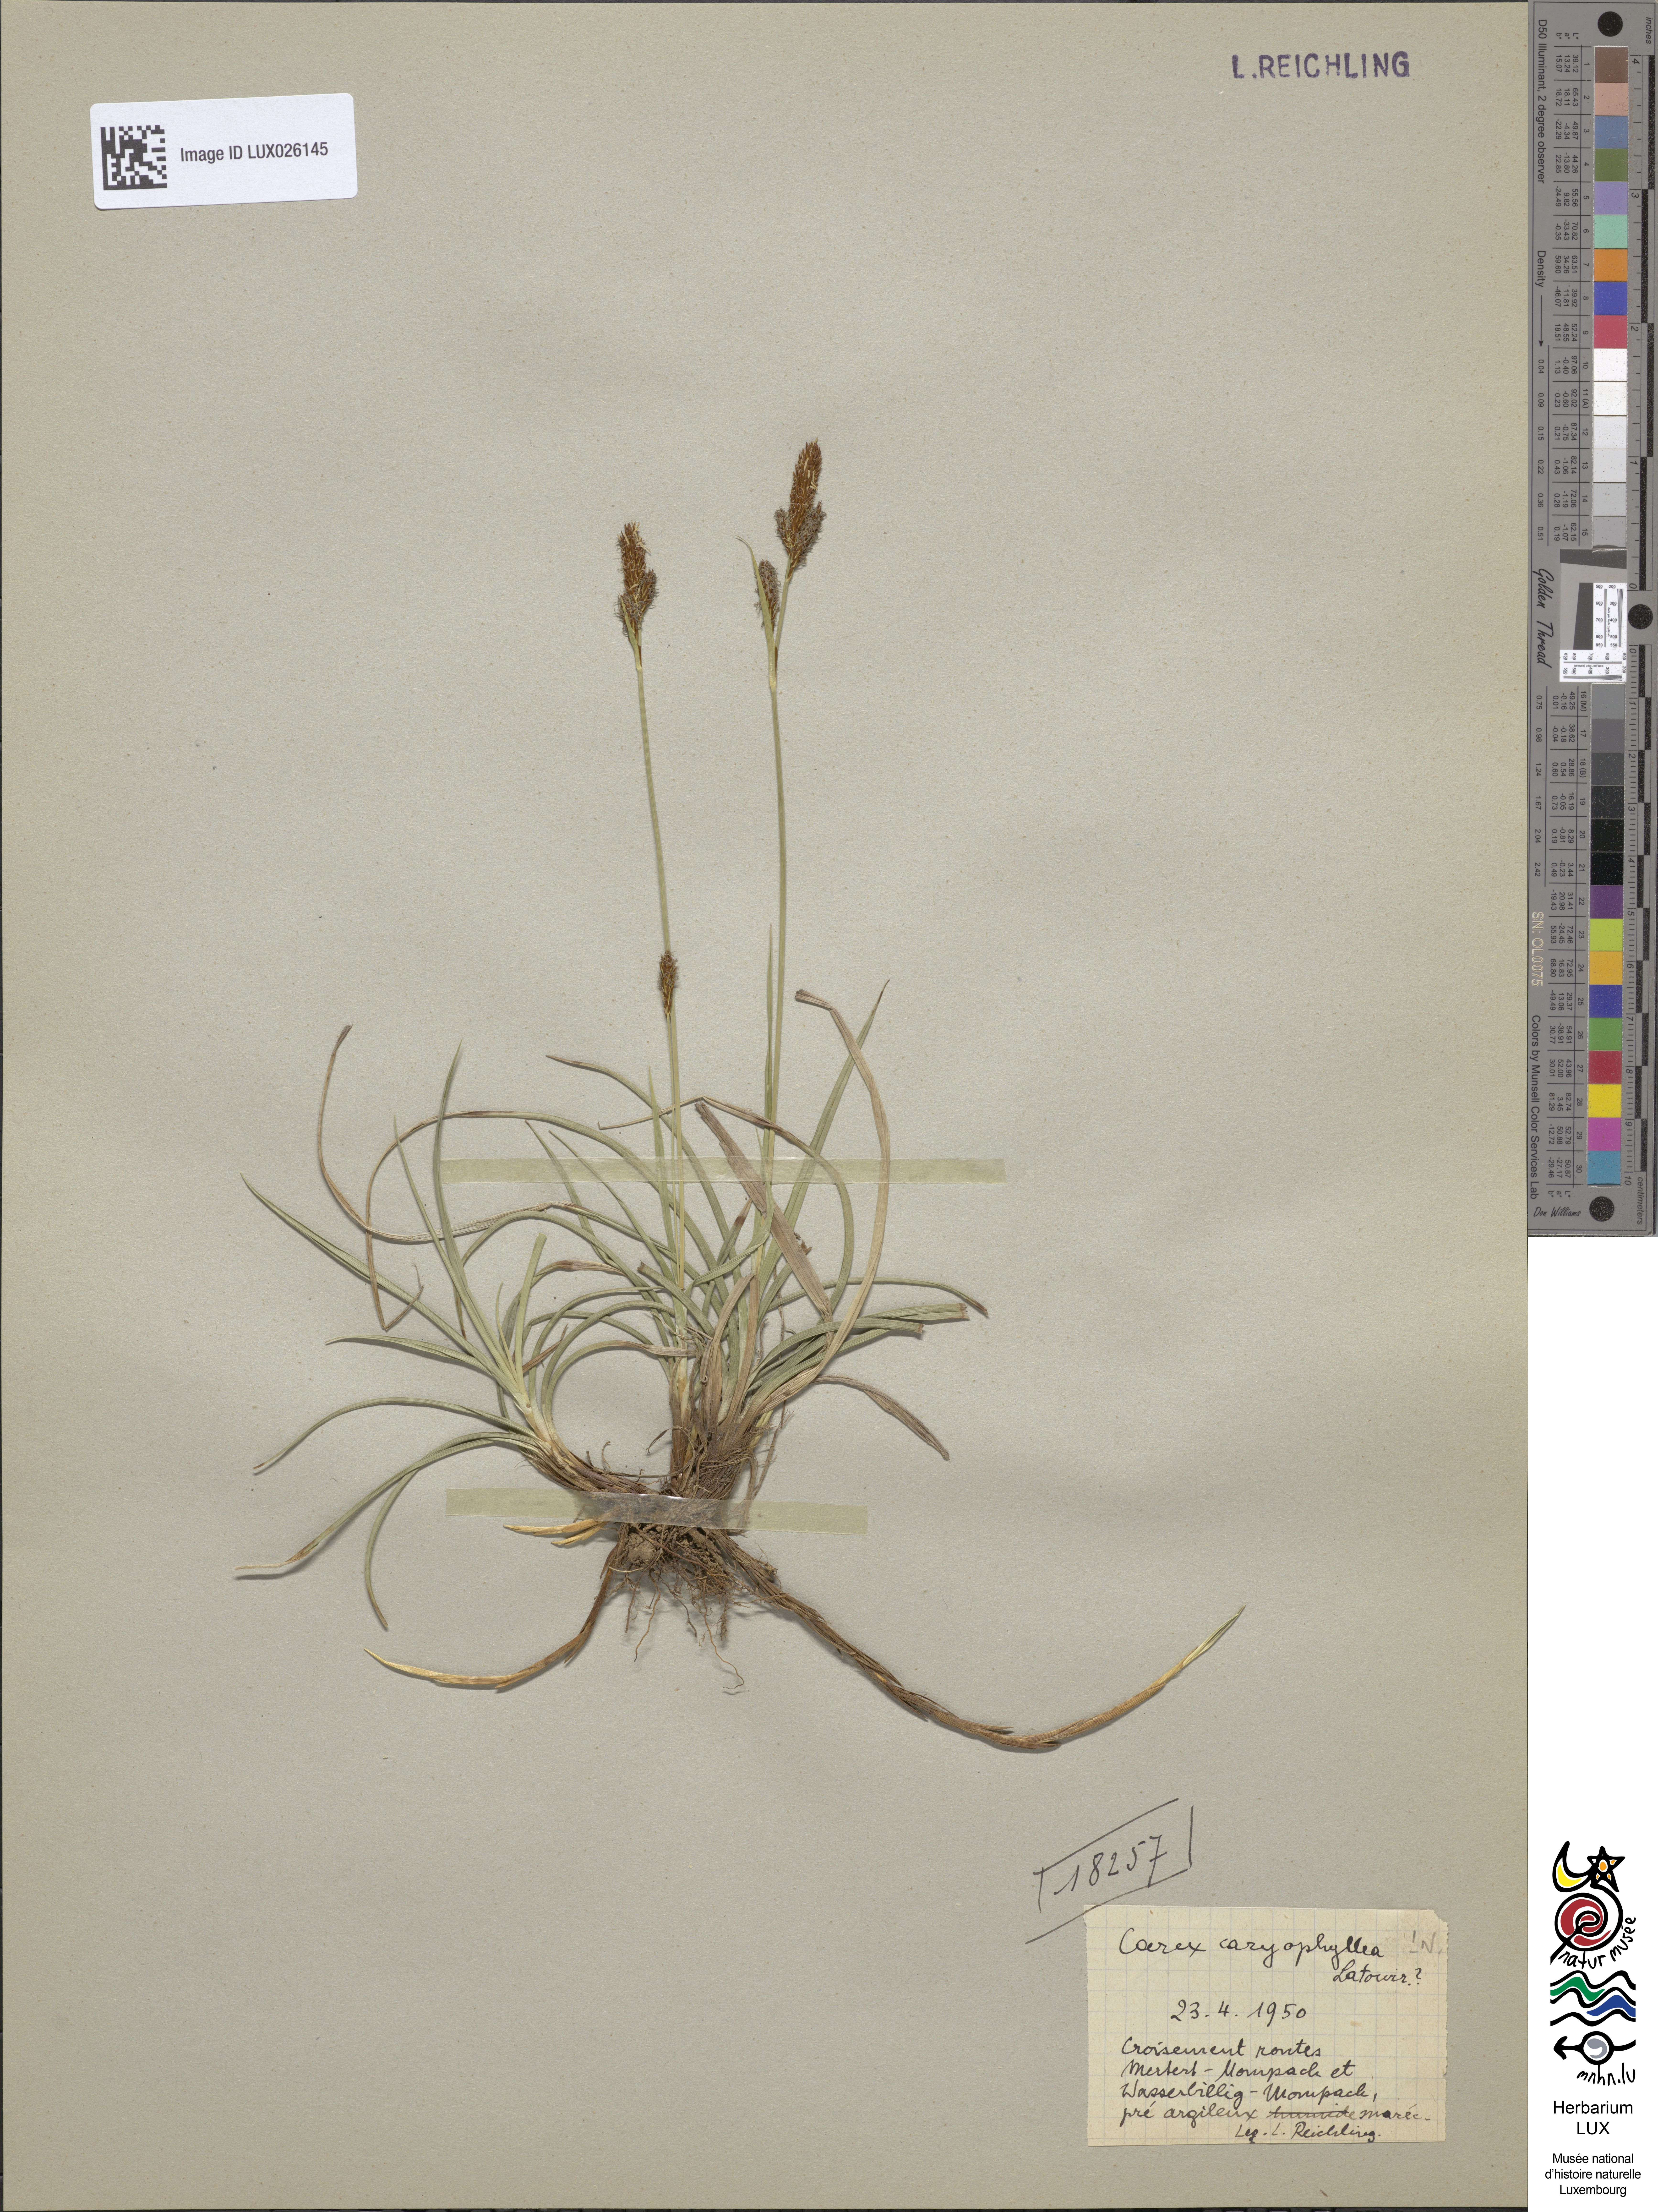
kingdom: Plantae
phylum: Tracheophyta
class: Liliopsida
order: Poales
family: Cyperaceae
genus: Carex
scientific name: Carex caryophyllea
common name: Spring sedge
